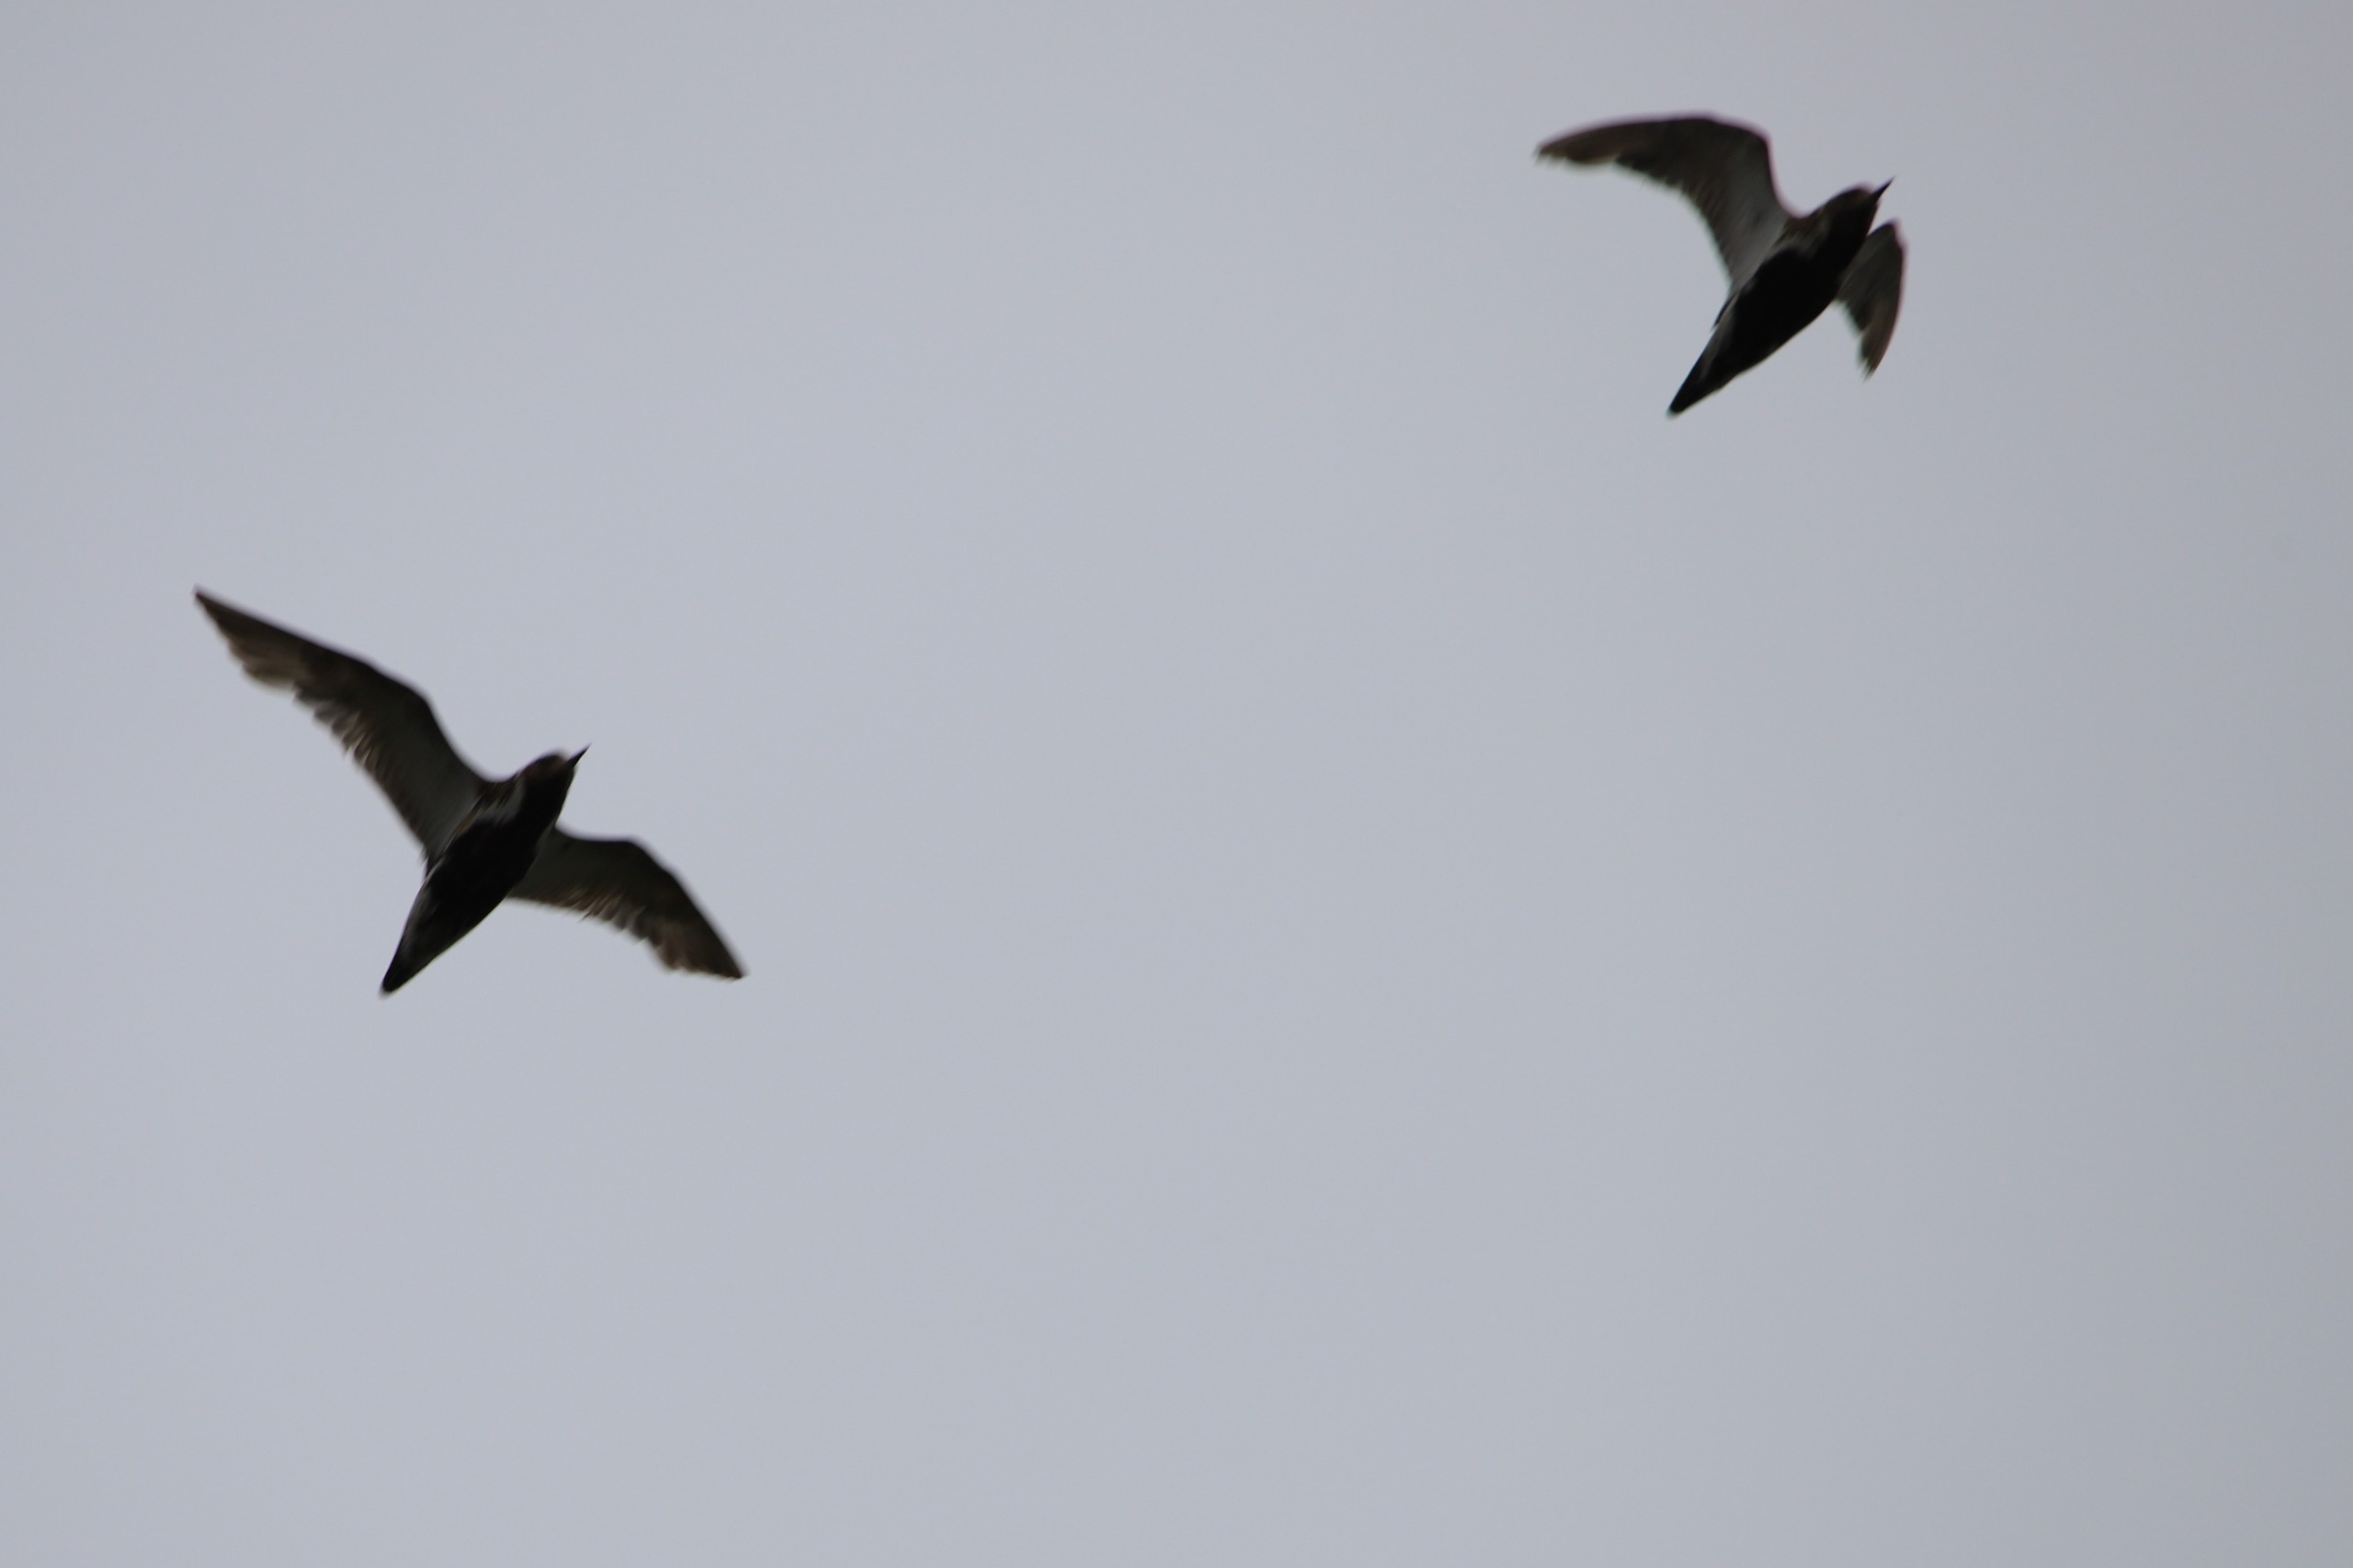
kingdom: Animalia
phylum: Chordata
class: Aves
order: Charadriiformes
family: Charadriidae
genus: Pluvialis
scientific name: Pluvialis apricaria
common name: Hjejle
